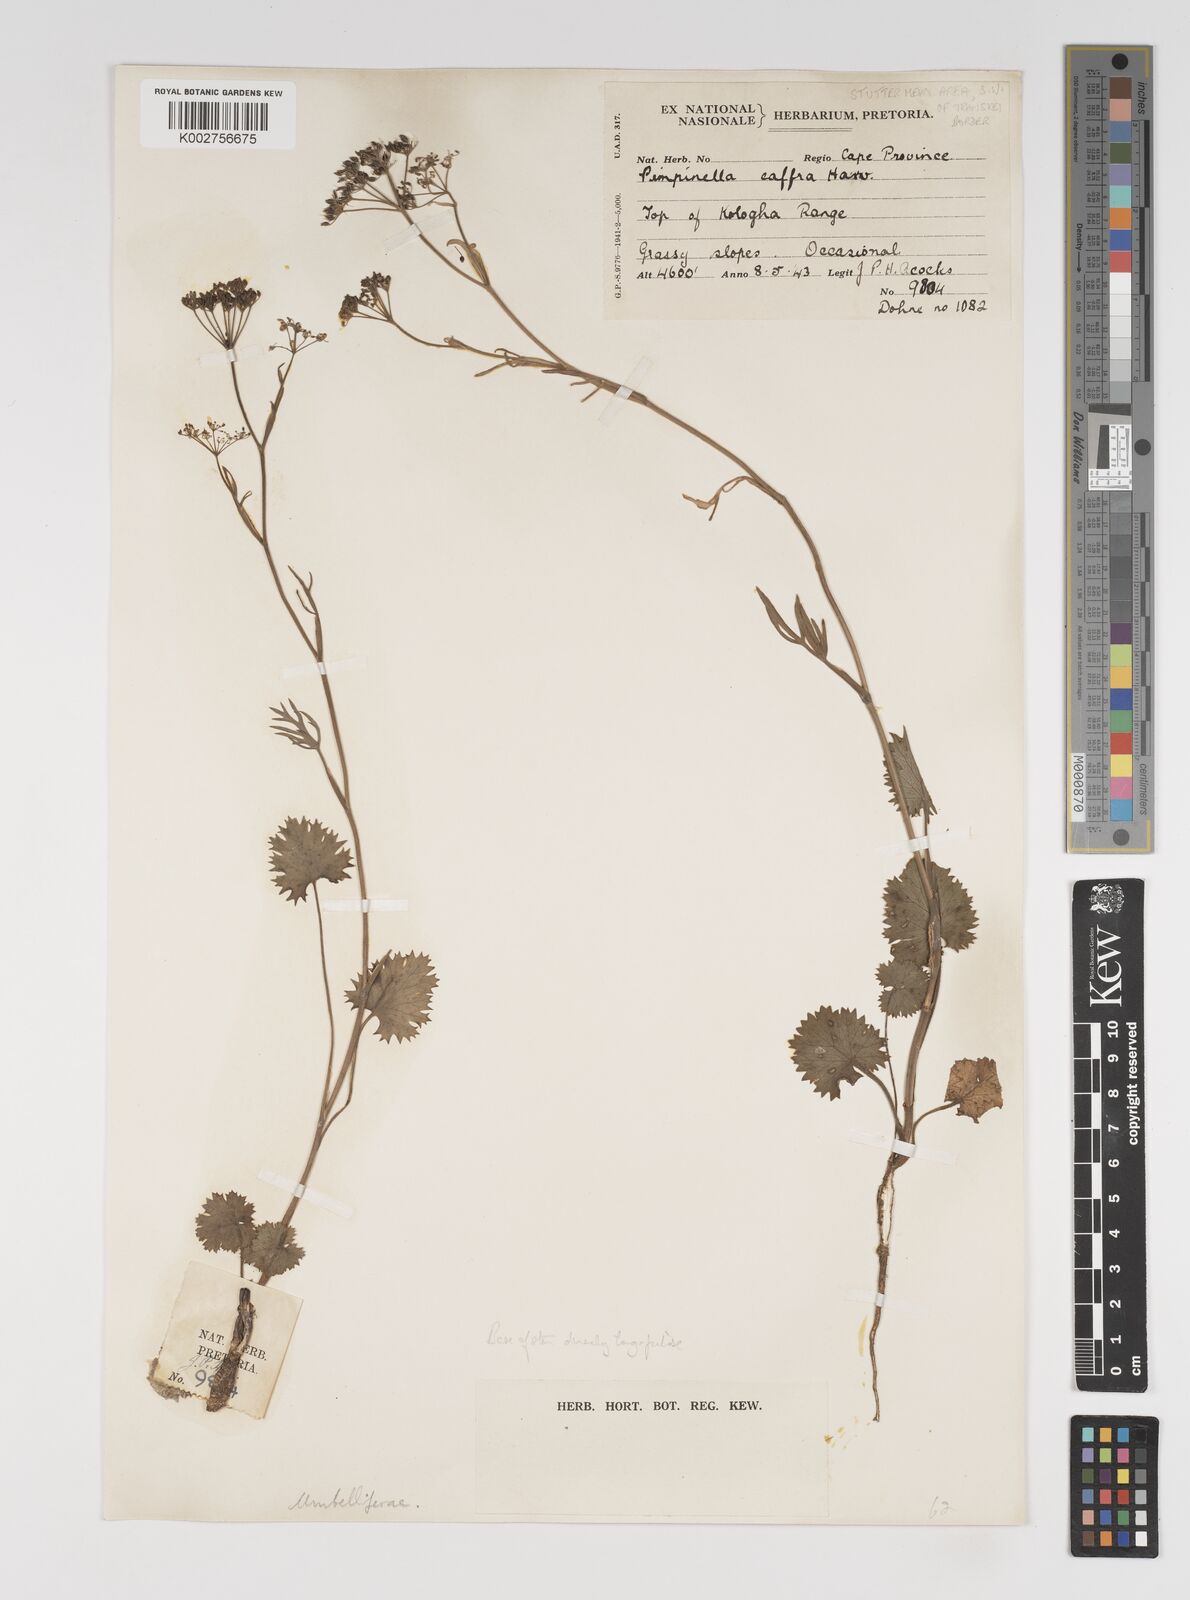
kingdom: Plantae
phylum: Tracheophyta
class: Magnoliopsida
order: Apiales
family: Apiaceae
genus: Pimpinella
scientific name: Pimpinella
